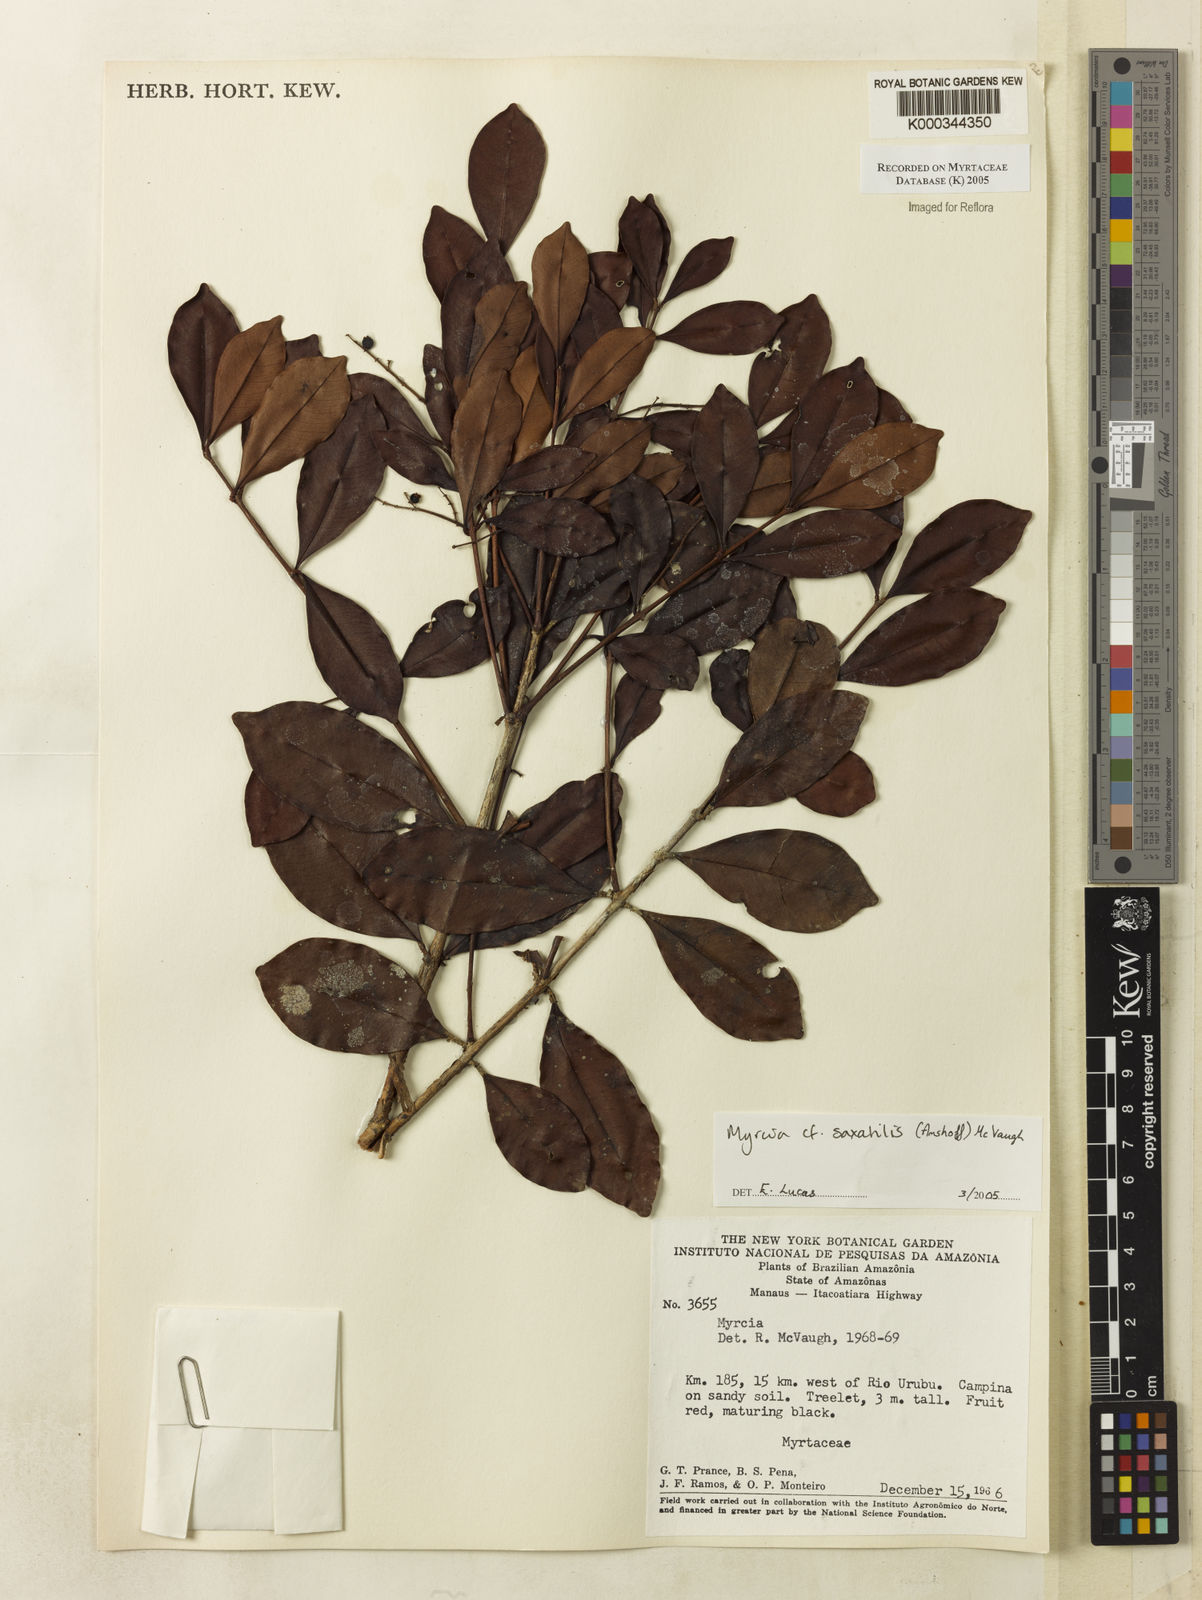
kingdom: Plantae
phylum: Tracheophyta
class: Magnoliopsida
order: Myrtales
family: Myrtaceae
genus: Myrcia
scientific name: Myrcia saxatilis
